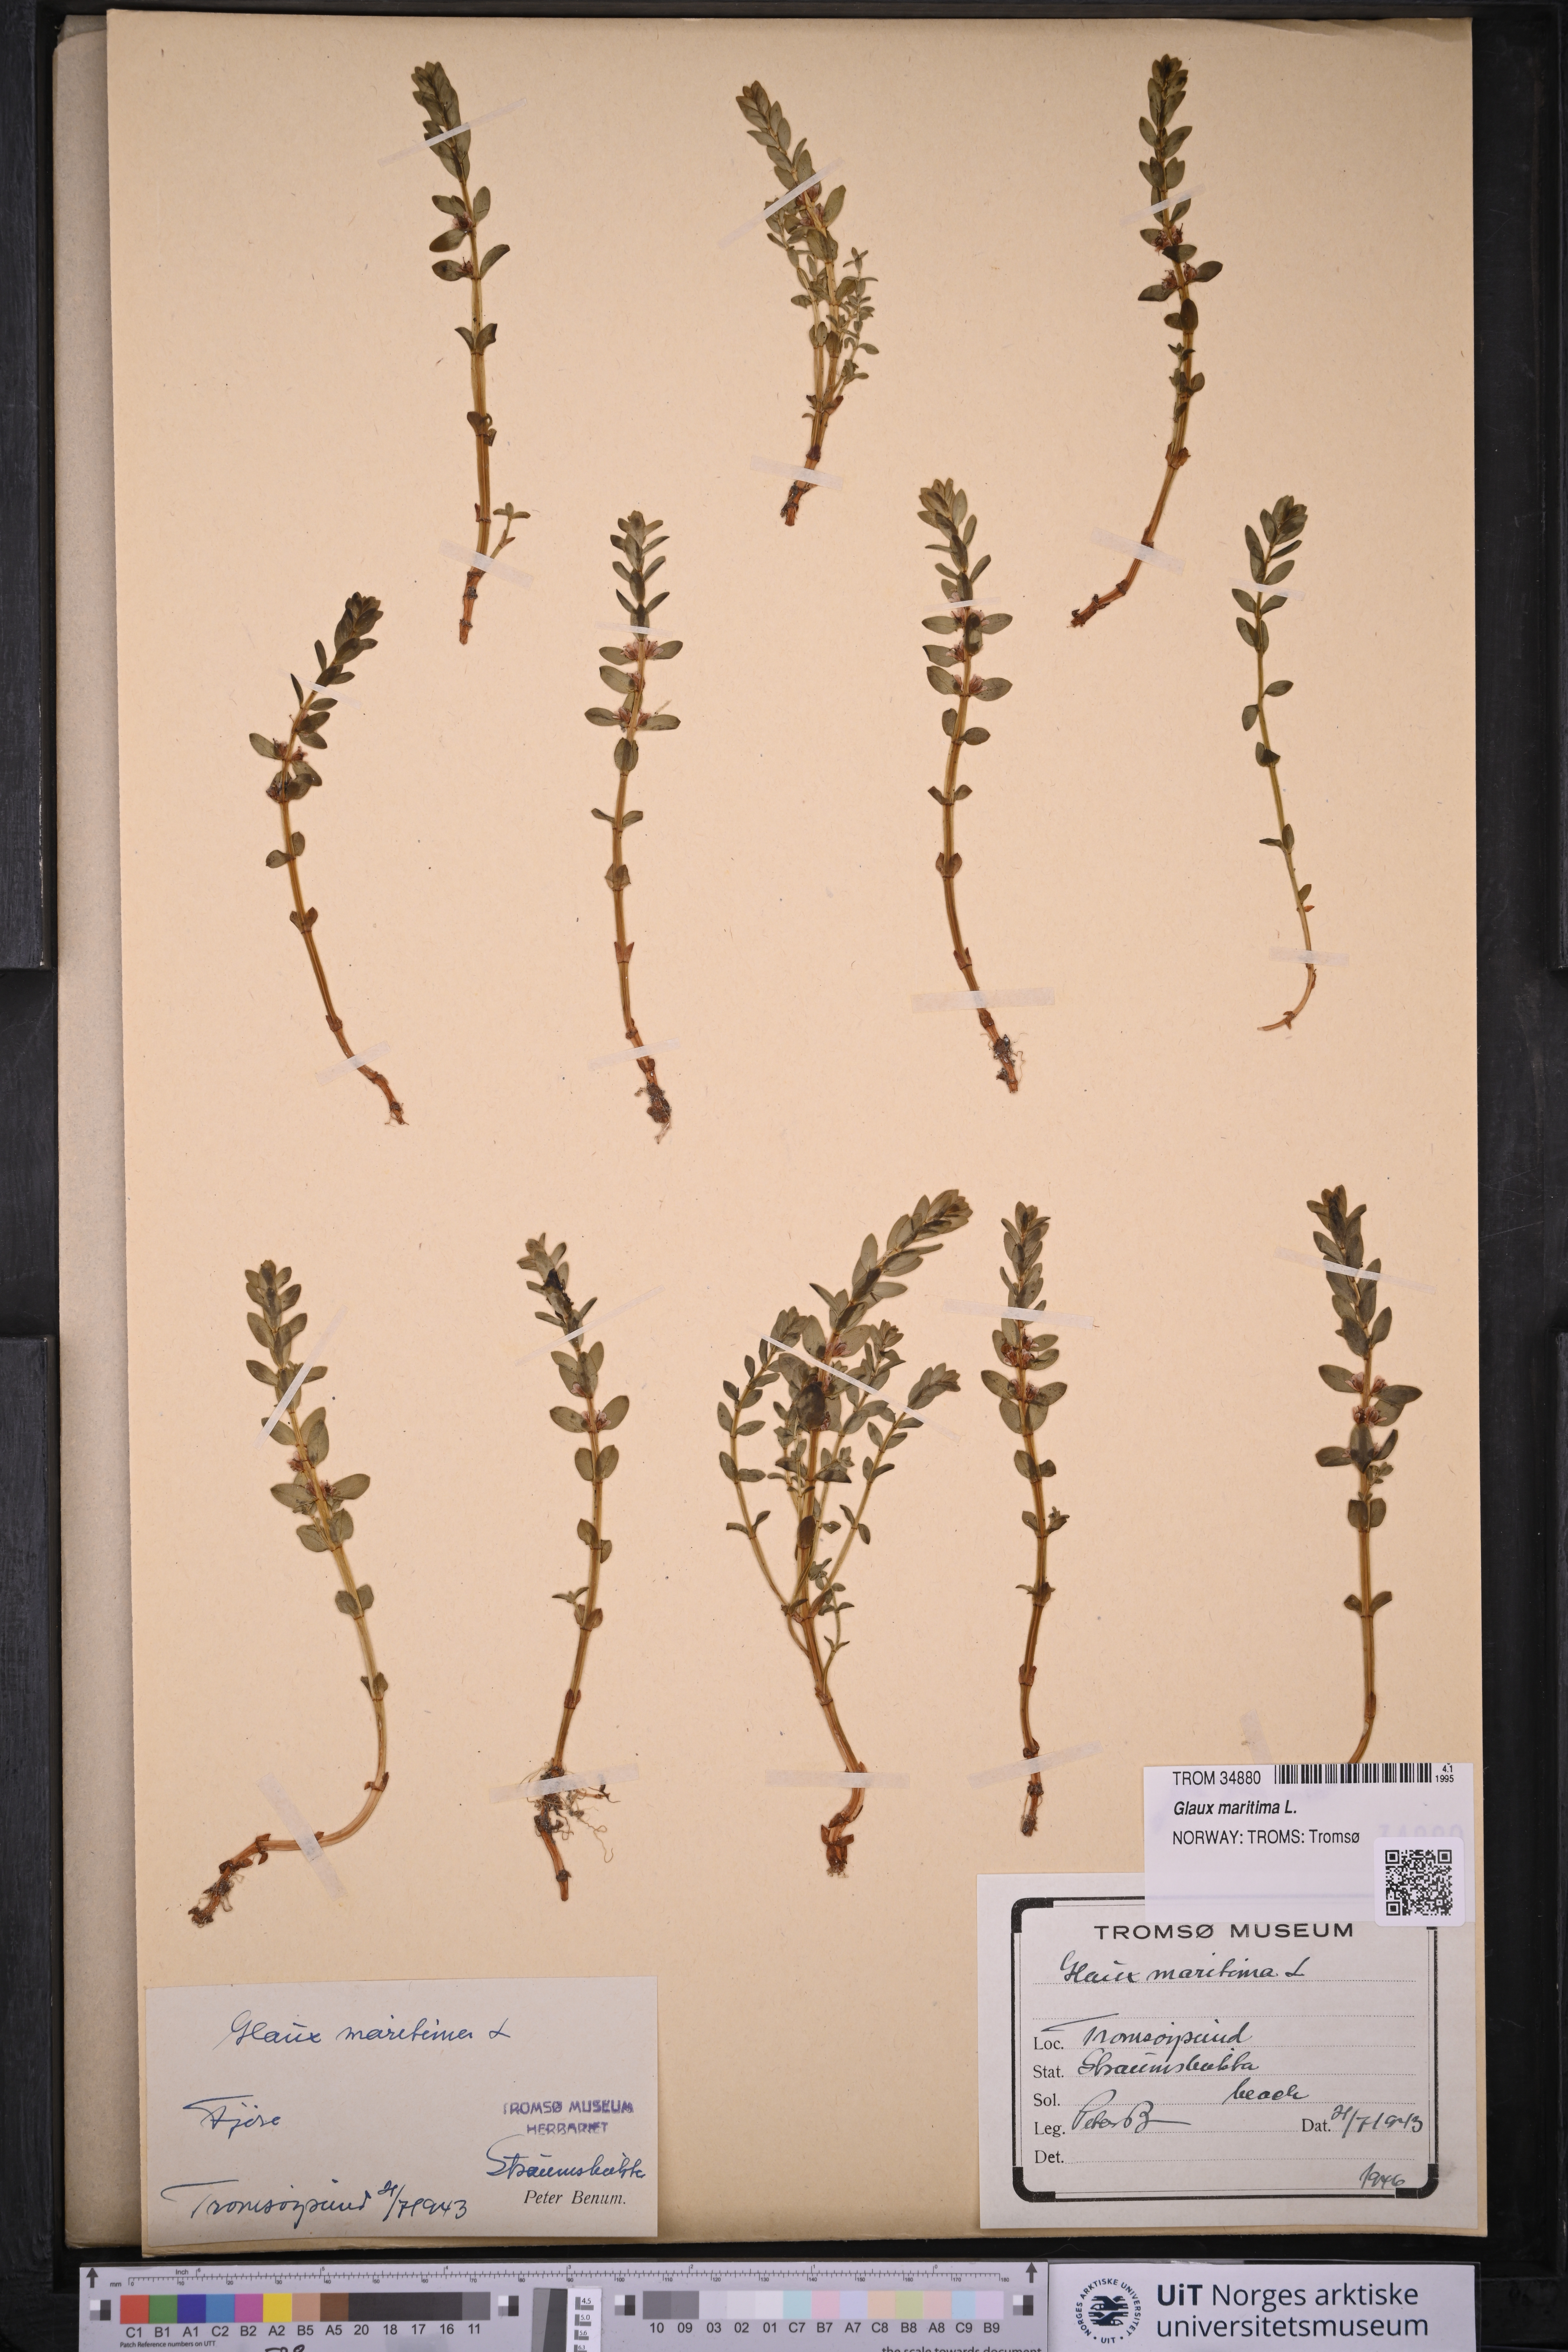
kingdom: Plantae
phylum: Tracheophyta
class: Magnoliopsida
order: Ericales
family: Primulaceae
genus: Lysimachia
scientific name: Lysimachia maritima
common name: Sea milkwort
